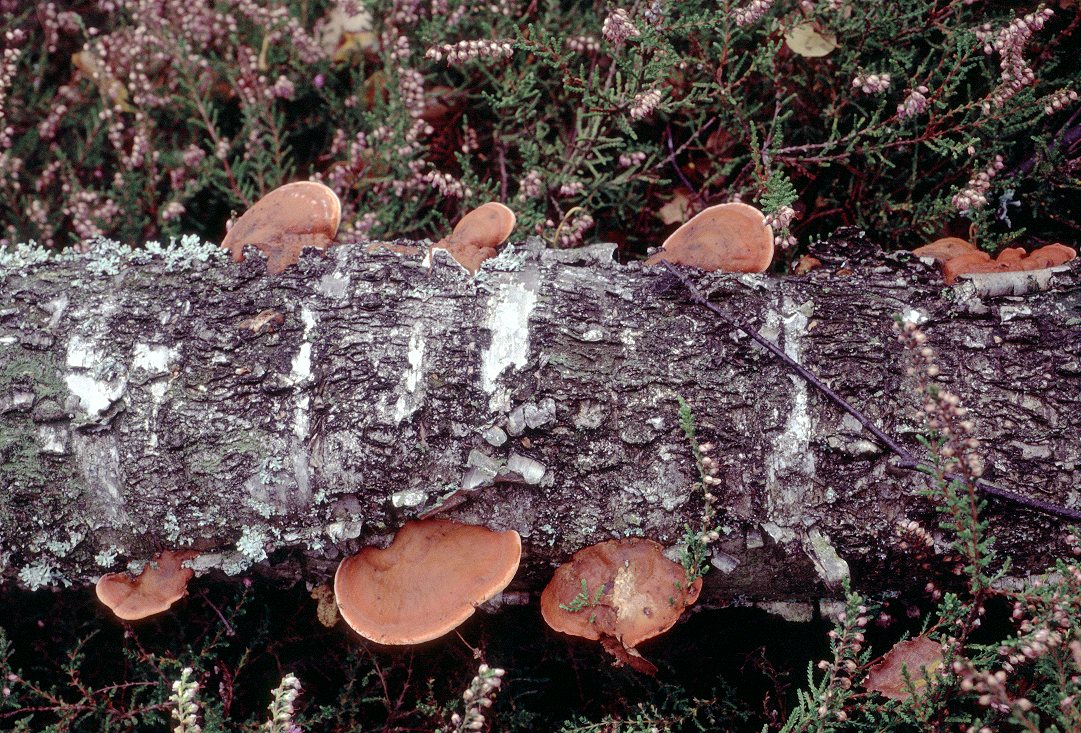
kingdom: Fungi
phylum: Basidiomycota
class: Agaricomycetes
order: Polyporales
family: Polyporaceae
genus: Trametes
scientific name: Trametes cinnabarina
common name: cinnoberporesvamp
